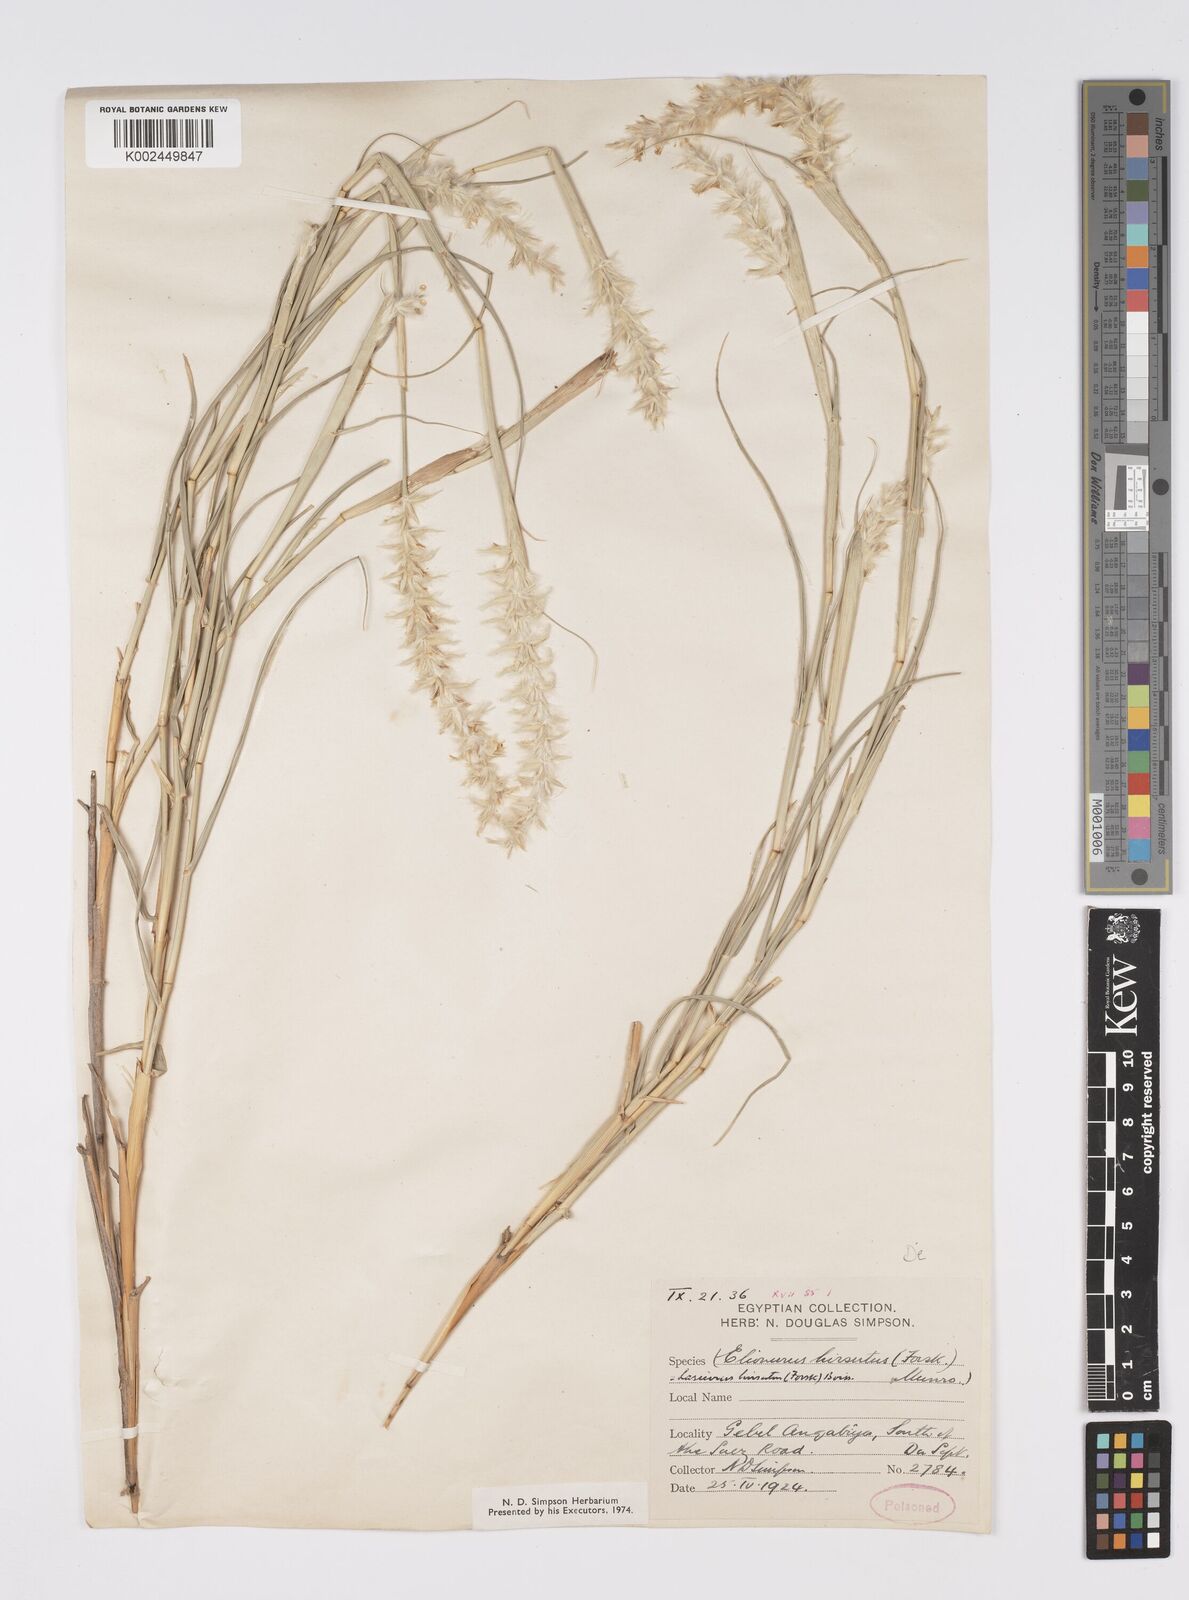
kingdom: Plantae
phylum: Tracheophyta
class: Liliopsida
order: Poales
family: Poaceae
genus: Lasiurus
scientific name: Lasiurus scindicus
